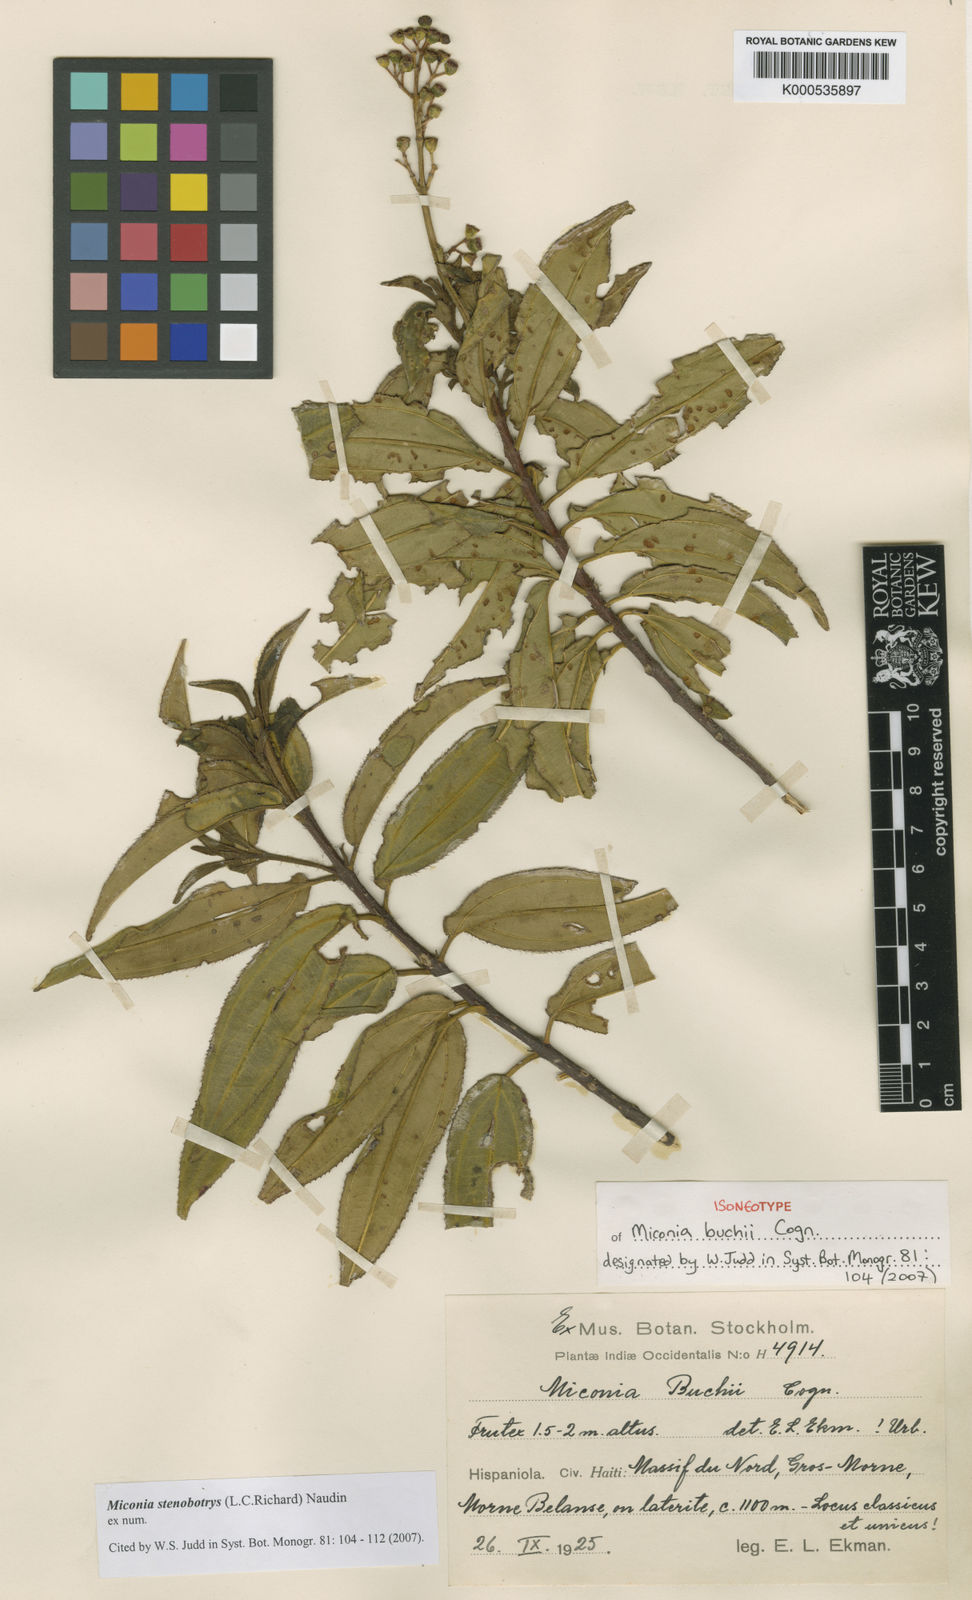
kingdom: Plantae
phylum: Tracheophyta
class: Magnoliopsida
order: Myrtales
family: Melastomataceae
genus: Miconia
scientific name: Miconia stenobotrys
